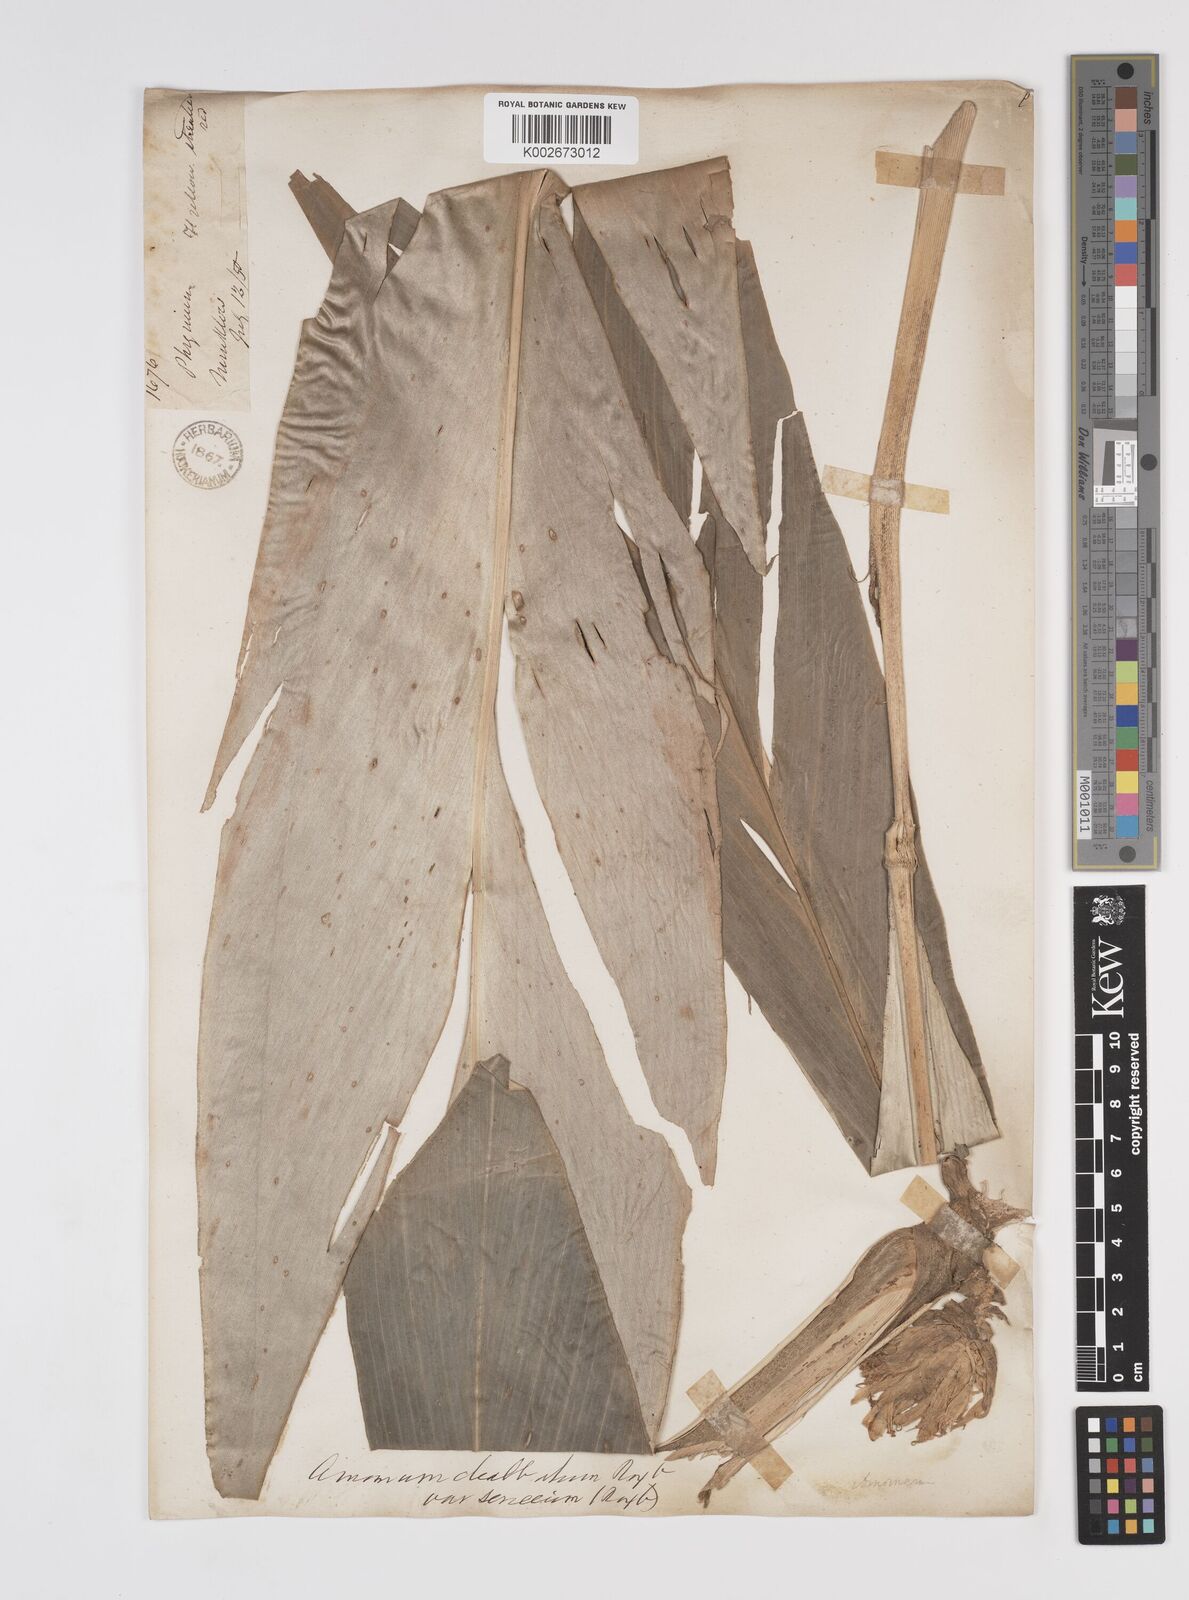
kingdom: Plantae
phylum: Tracheophyta
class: Liliopsida
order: Zingiberales
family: Zingiberaceae
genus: Amomum
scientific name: Amomum dealbatum
